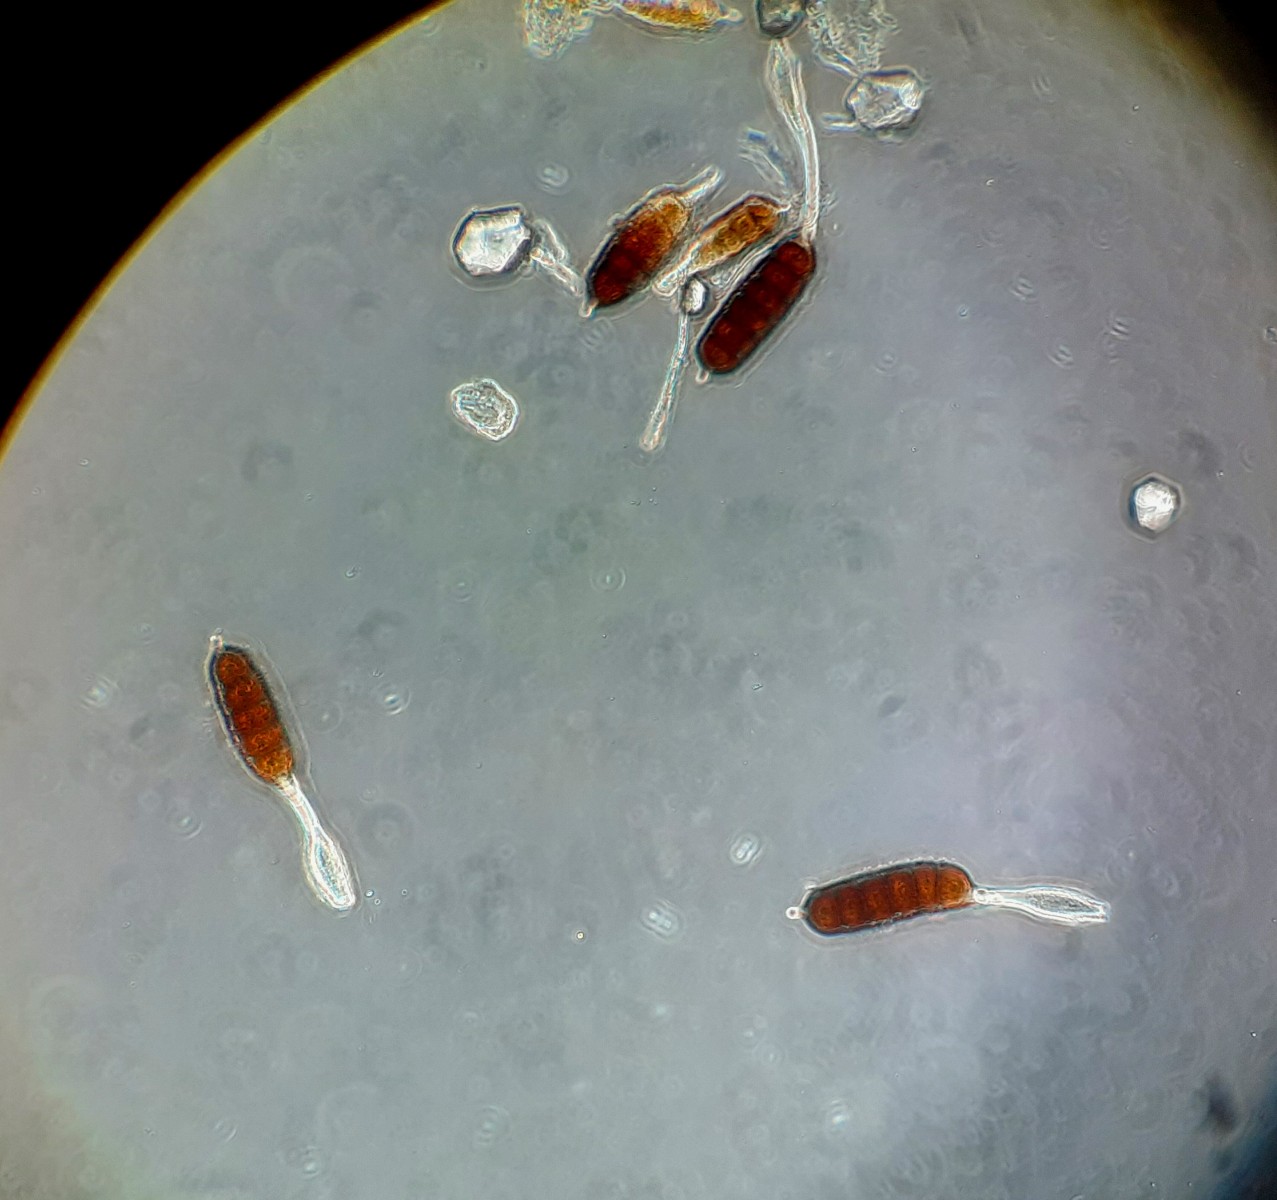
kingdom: Fungi
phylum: Basidiomycota
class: Pucciniomycetes
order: Pucciniales
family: Phragmidiaceae
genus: Phragmidium
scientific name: Phragmidium bulbosum
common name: brombær-flercellerust
